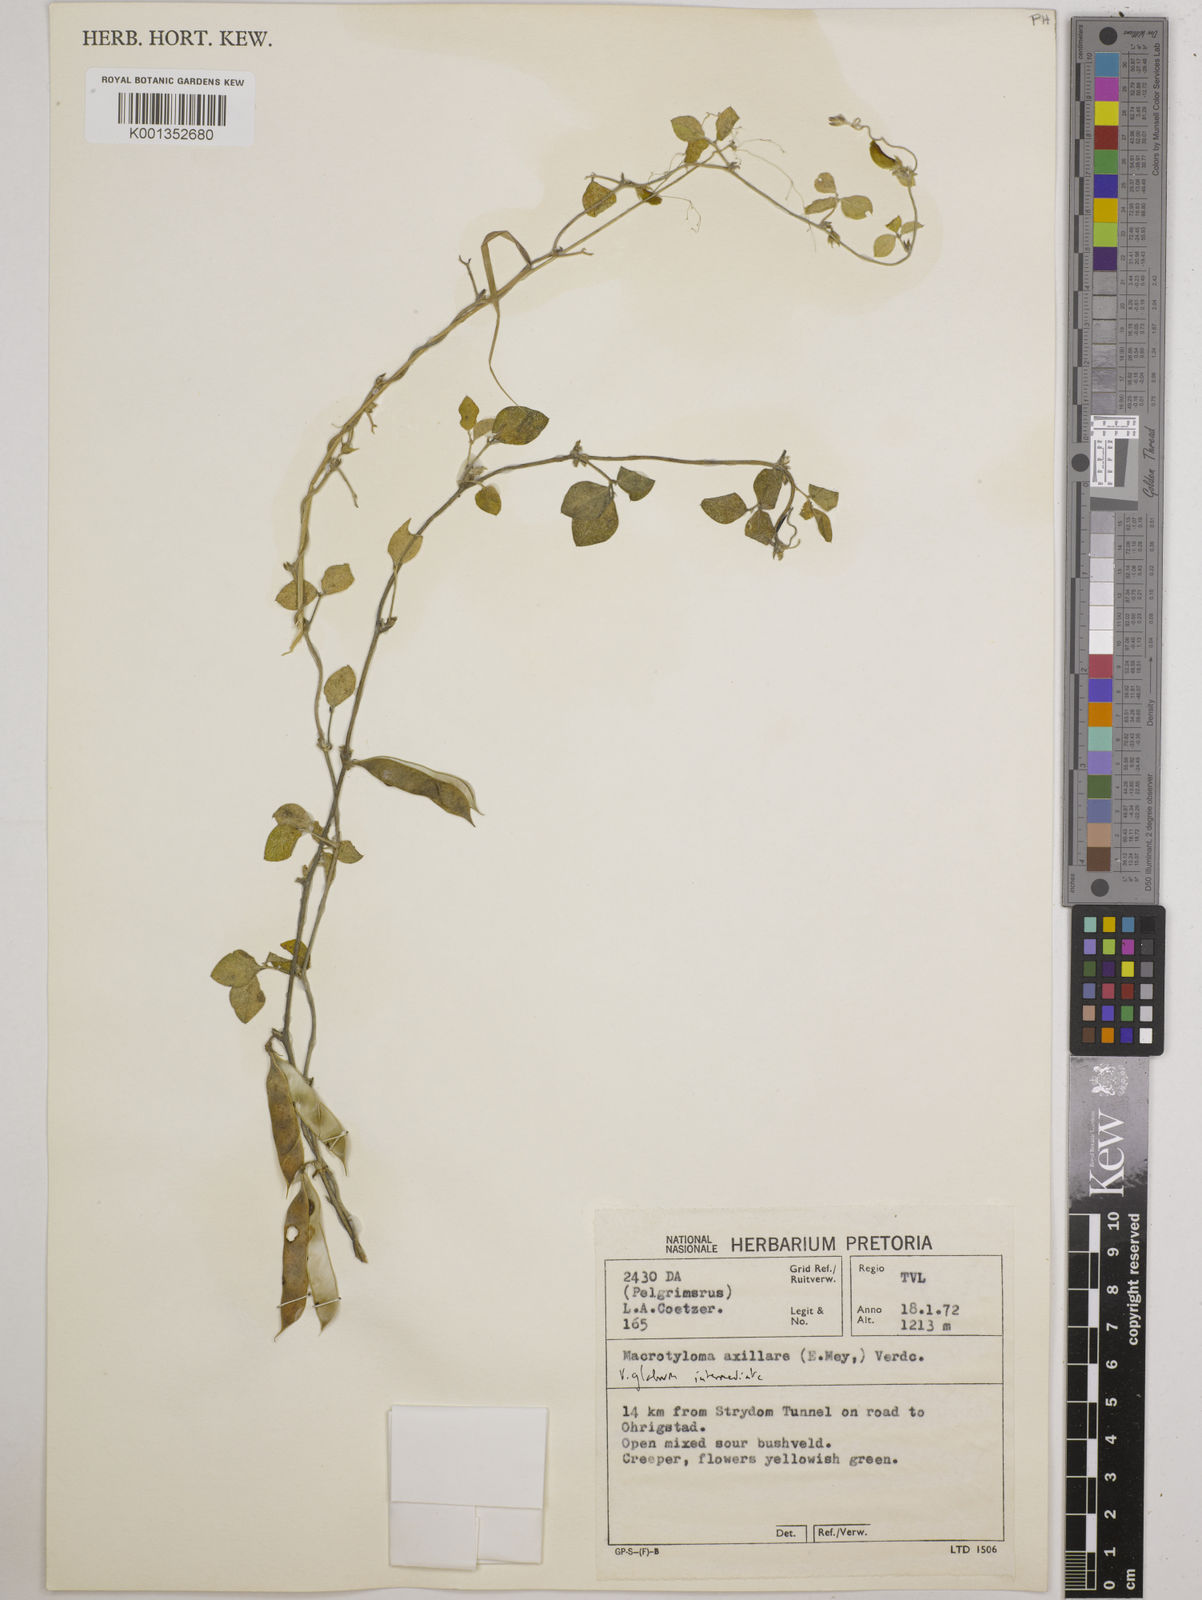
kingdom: Plantae
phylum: Tracheophyta
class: Magnoliopsida
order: Fabales
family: Fabaceae
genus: Macrotyloma
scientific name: Macrotyloma axillare
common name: Perennial horsegram
